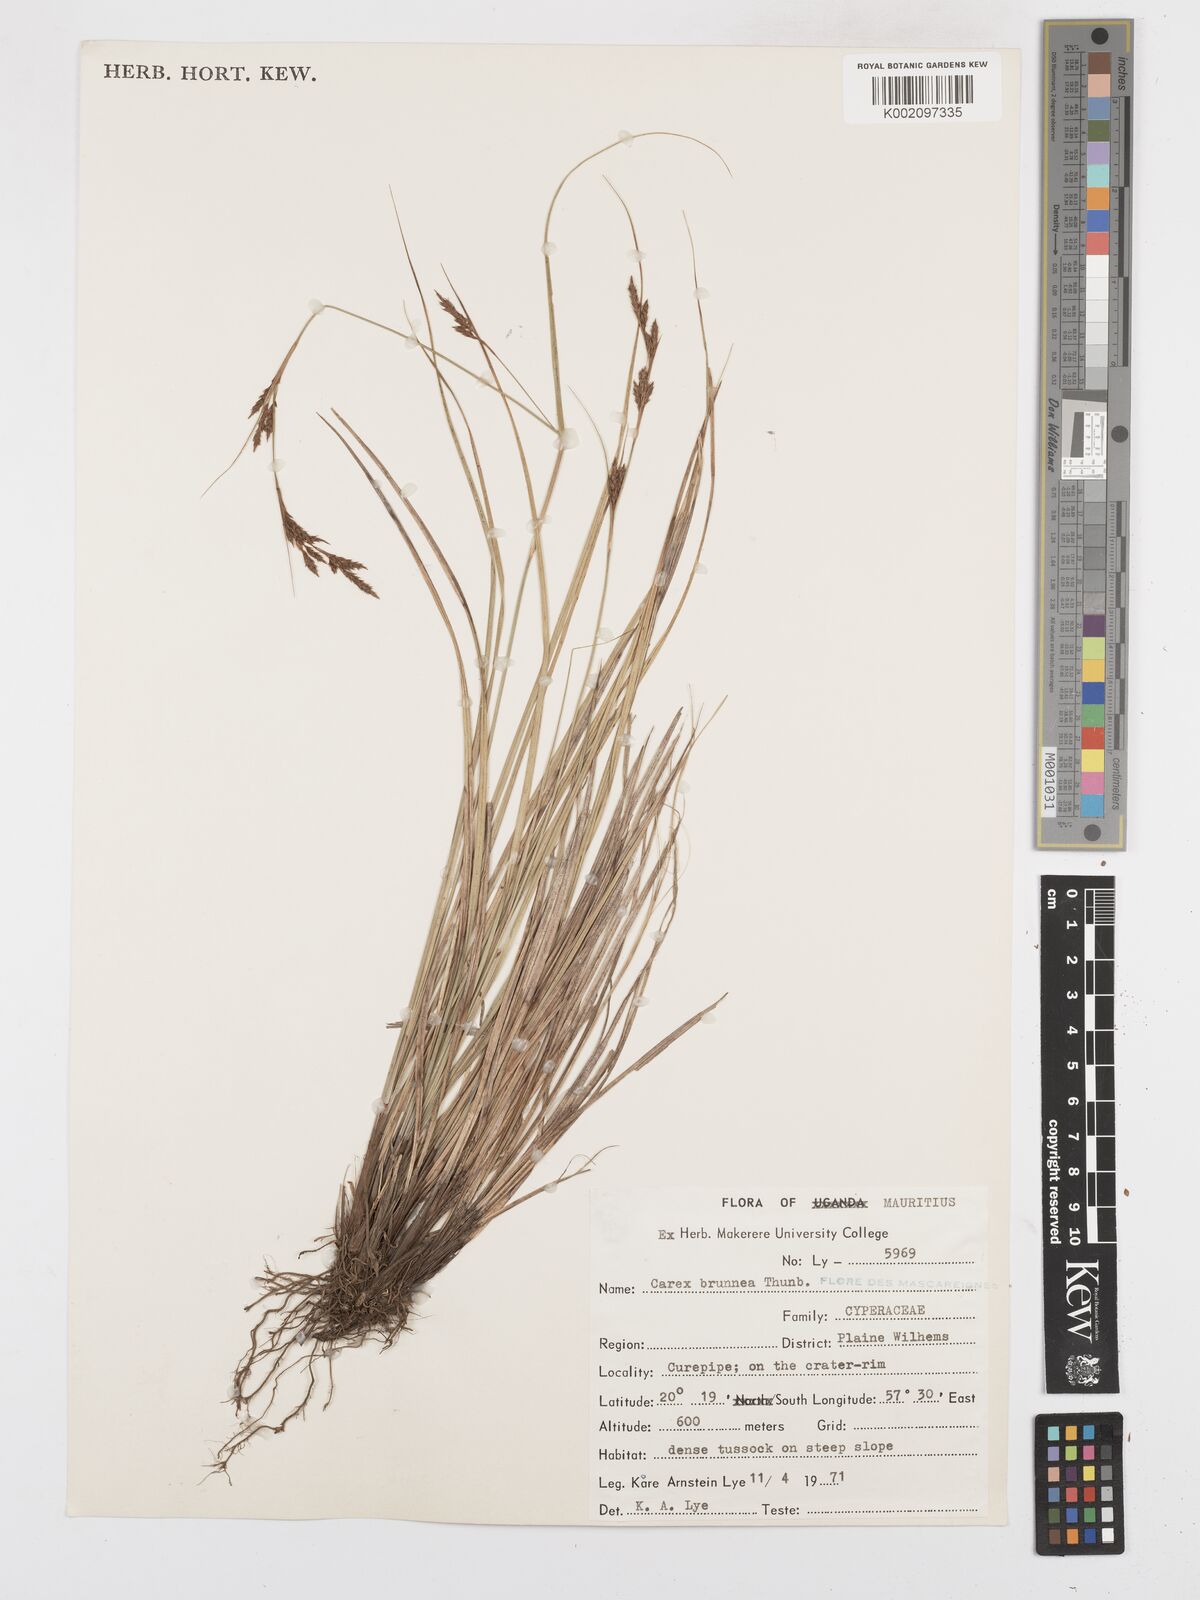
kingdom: Plantae
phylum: Tracheophyta
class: Liliopsida
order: Poales
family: Cyperaceae
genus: Carex
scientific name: Carex brunnea
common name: Greater brown sedge
